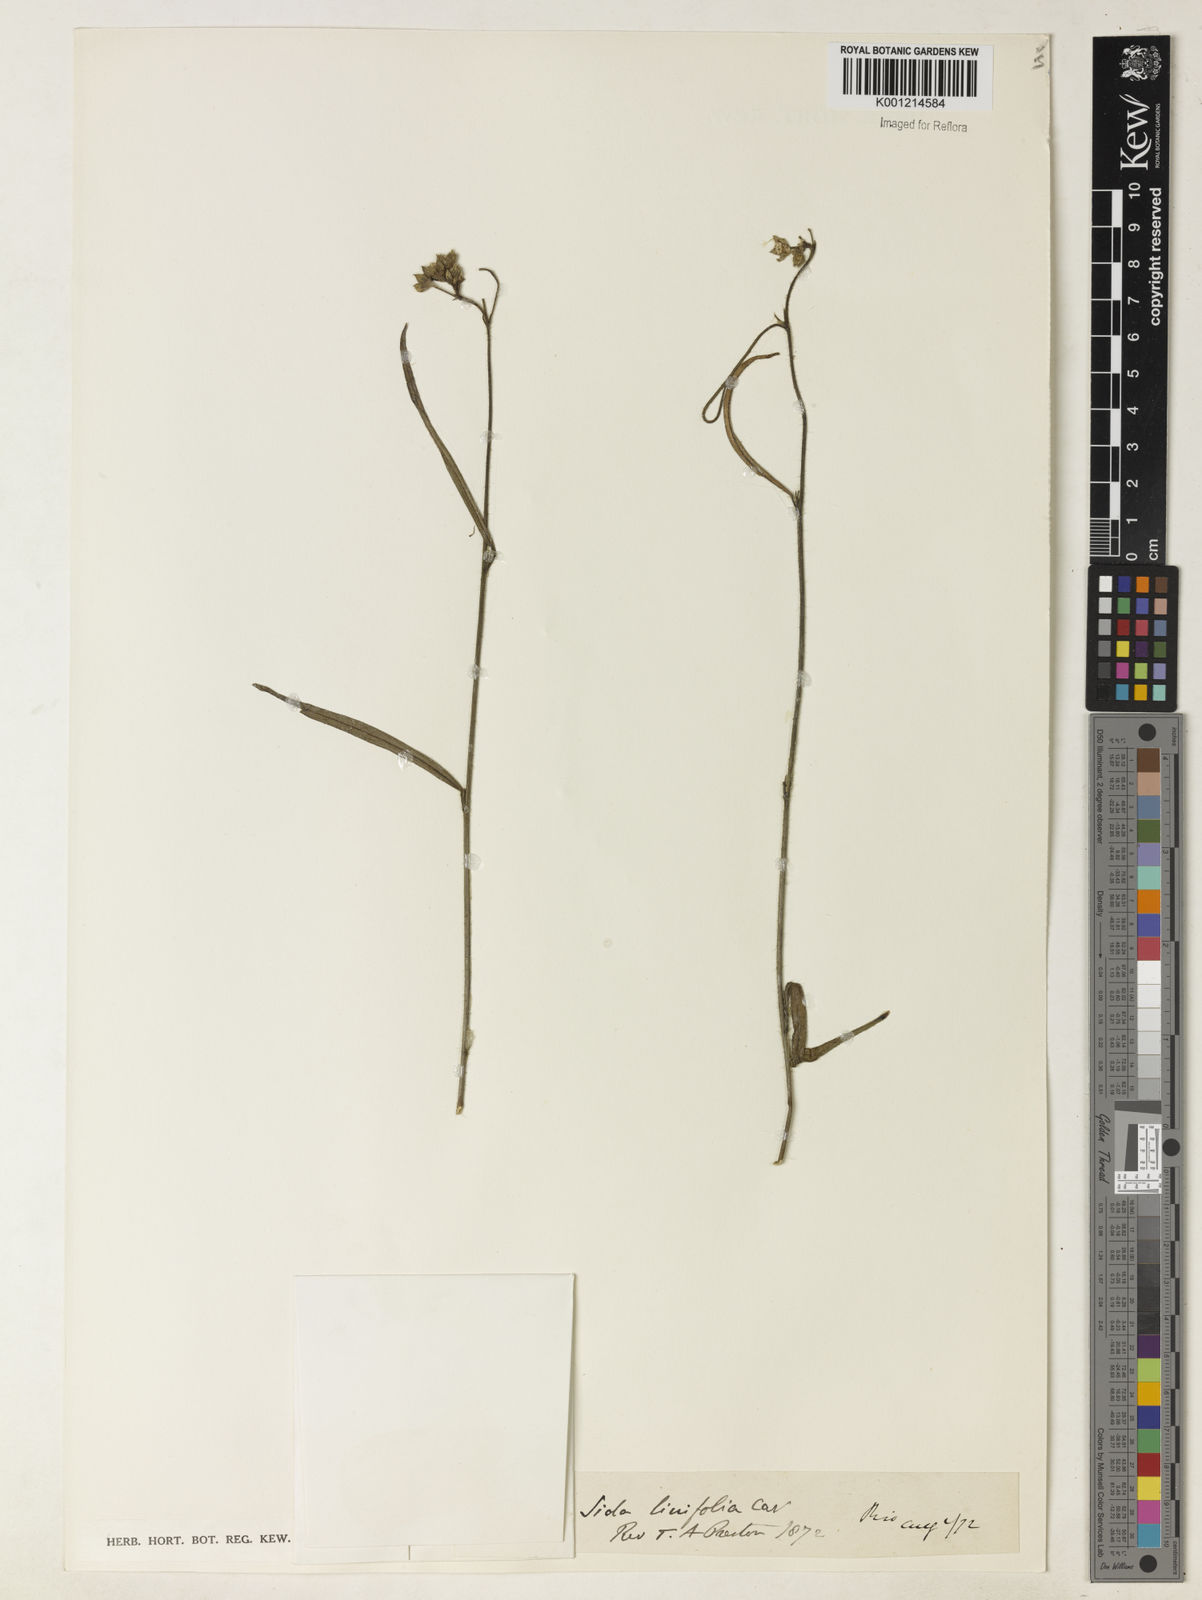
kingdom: Plantae
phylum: Tracheophyta
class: Magnoliopsida
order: Malvales
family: Malvaceae
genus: Sida
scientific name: Sida linifolia
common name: Flaxleaf fanpetals
